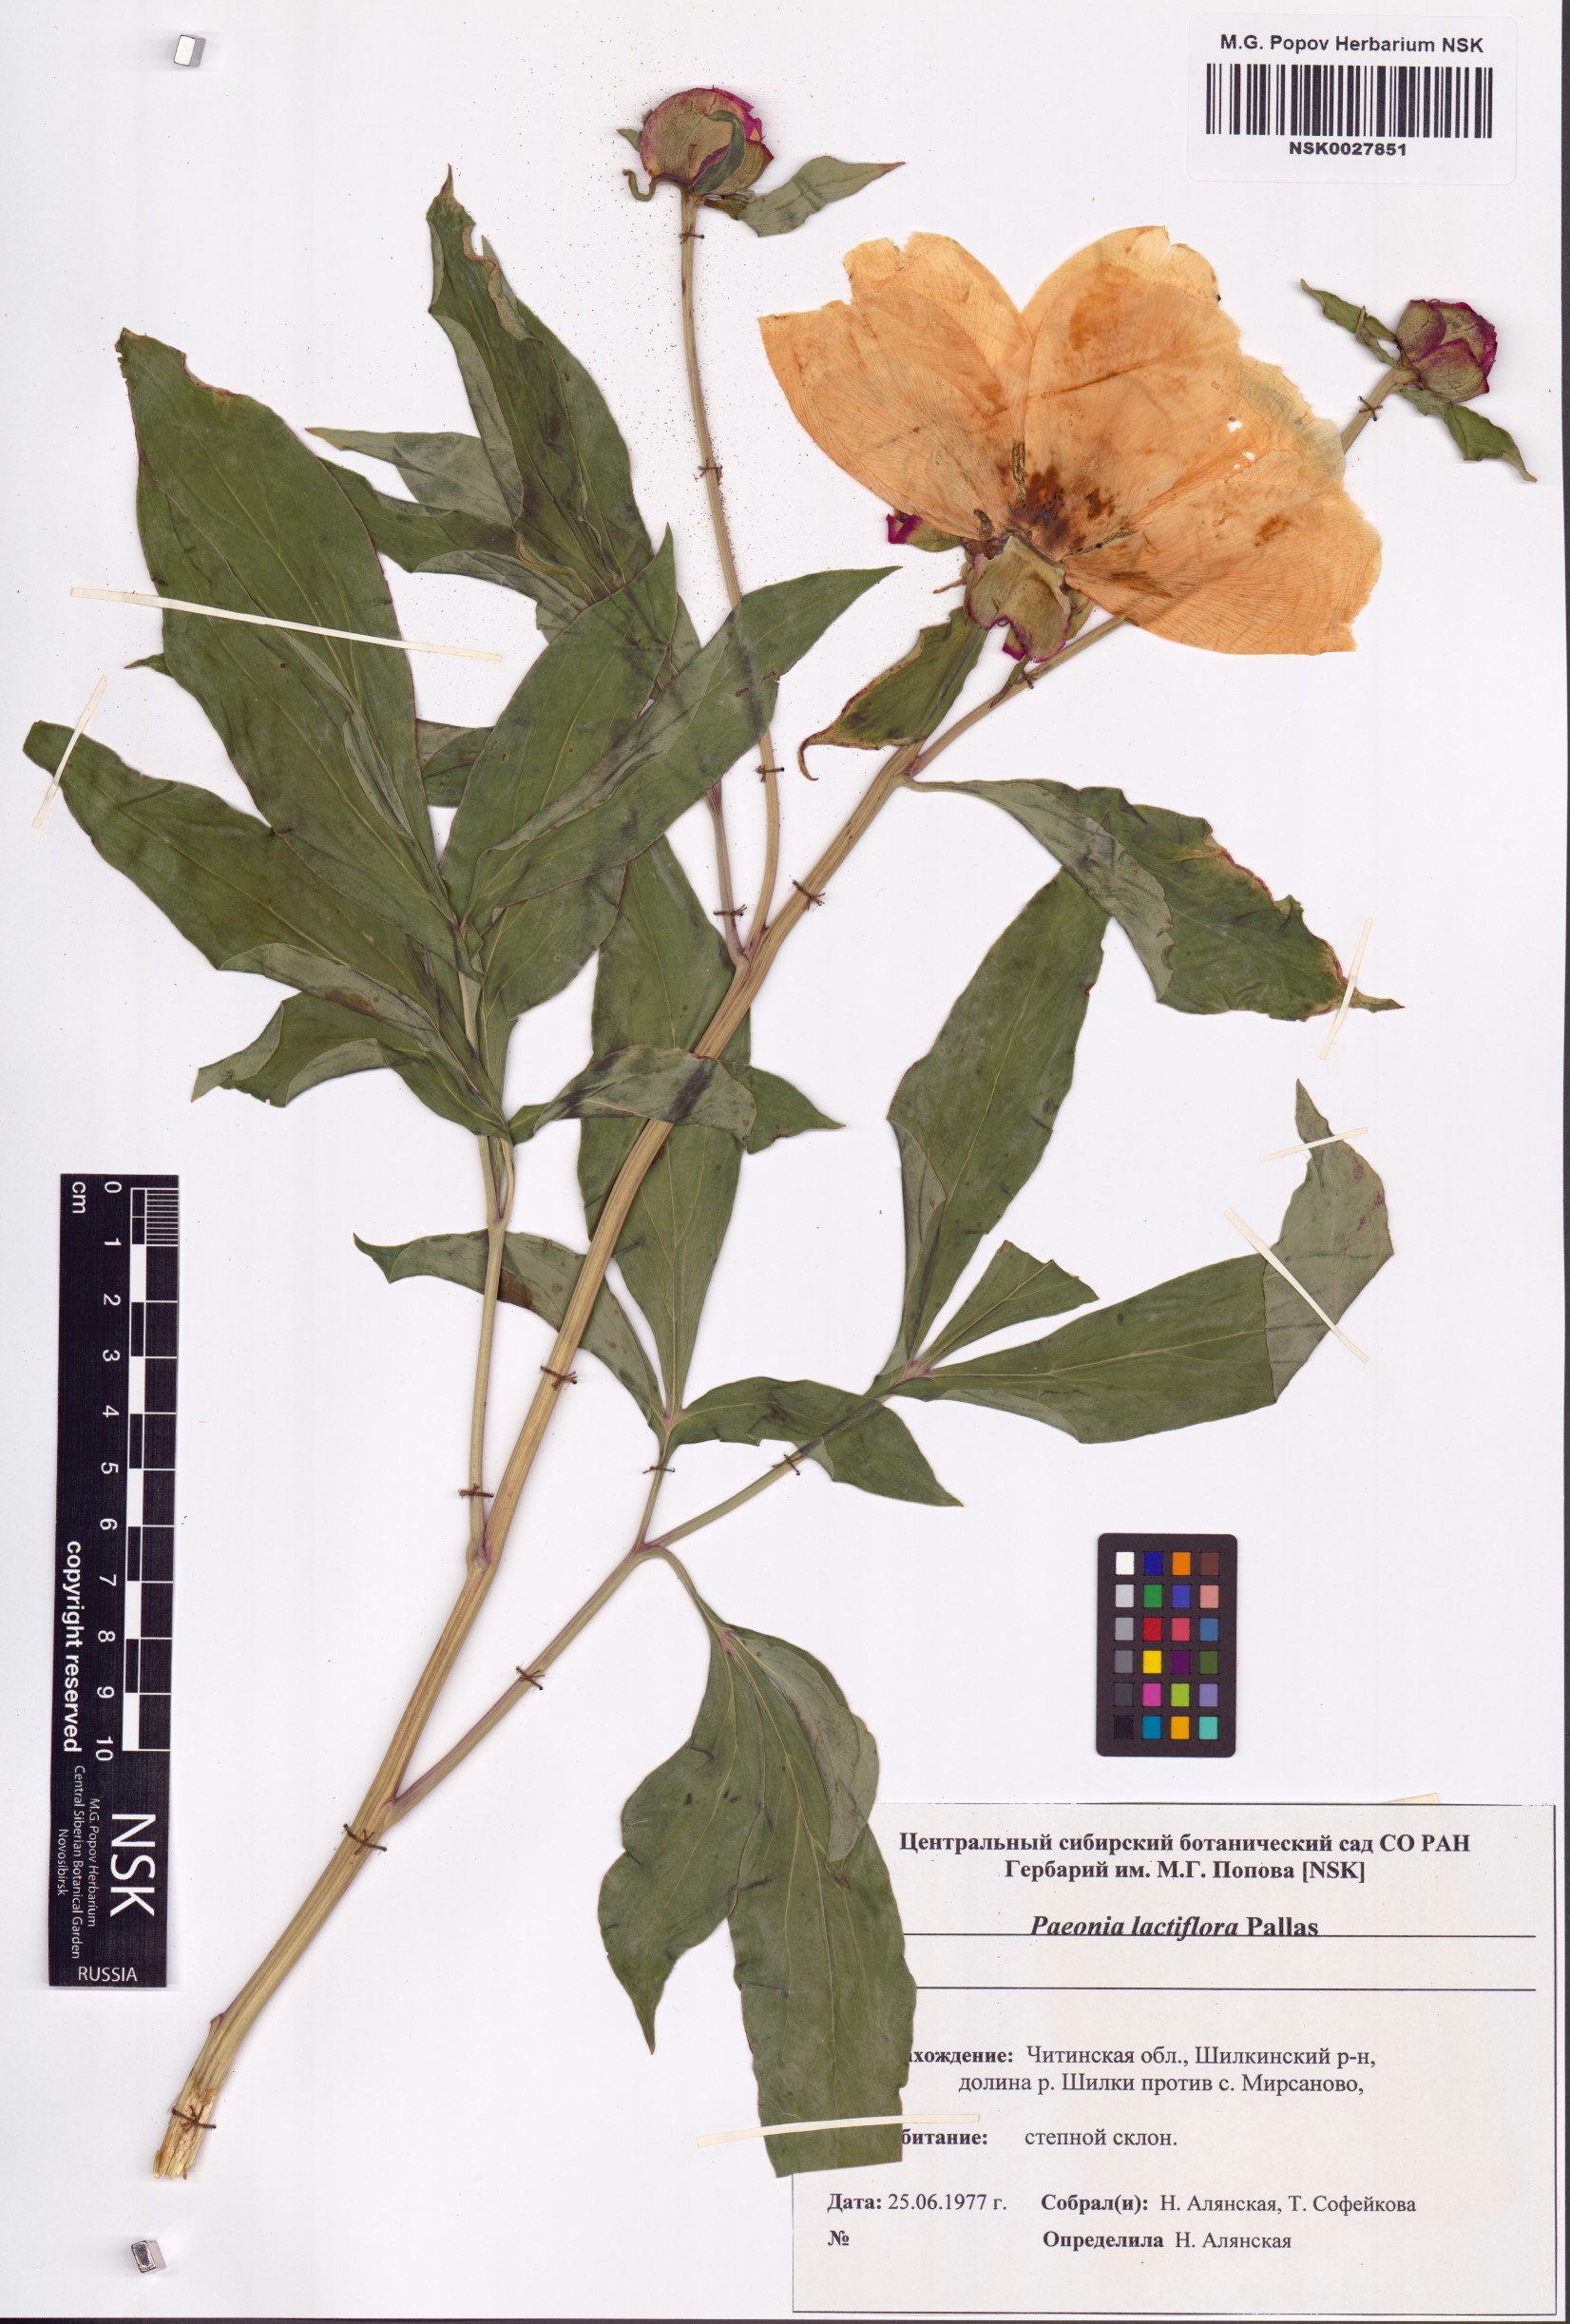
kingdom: Plantae
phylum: Tracheophyta
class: Magnoliopsida
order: Saxifragales
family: Paeoniaceae
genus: Paeonia
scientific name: Paeonia lactiflora
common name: Chinese peony
